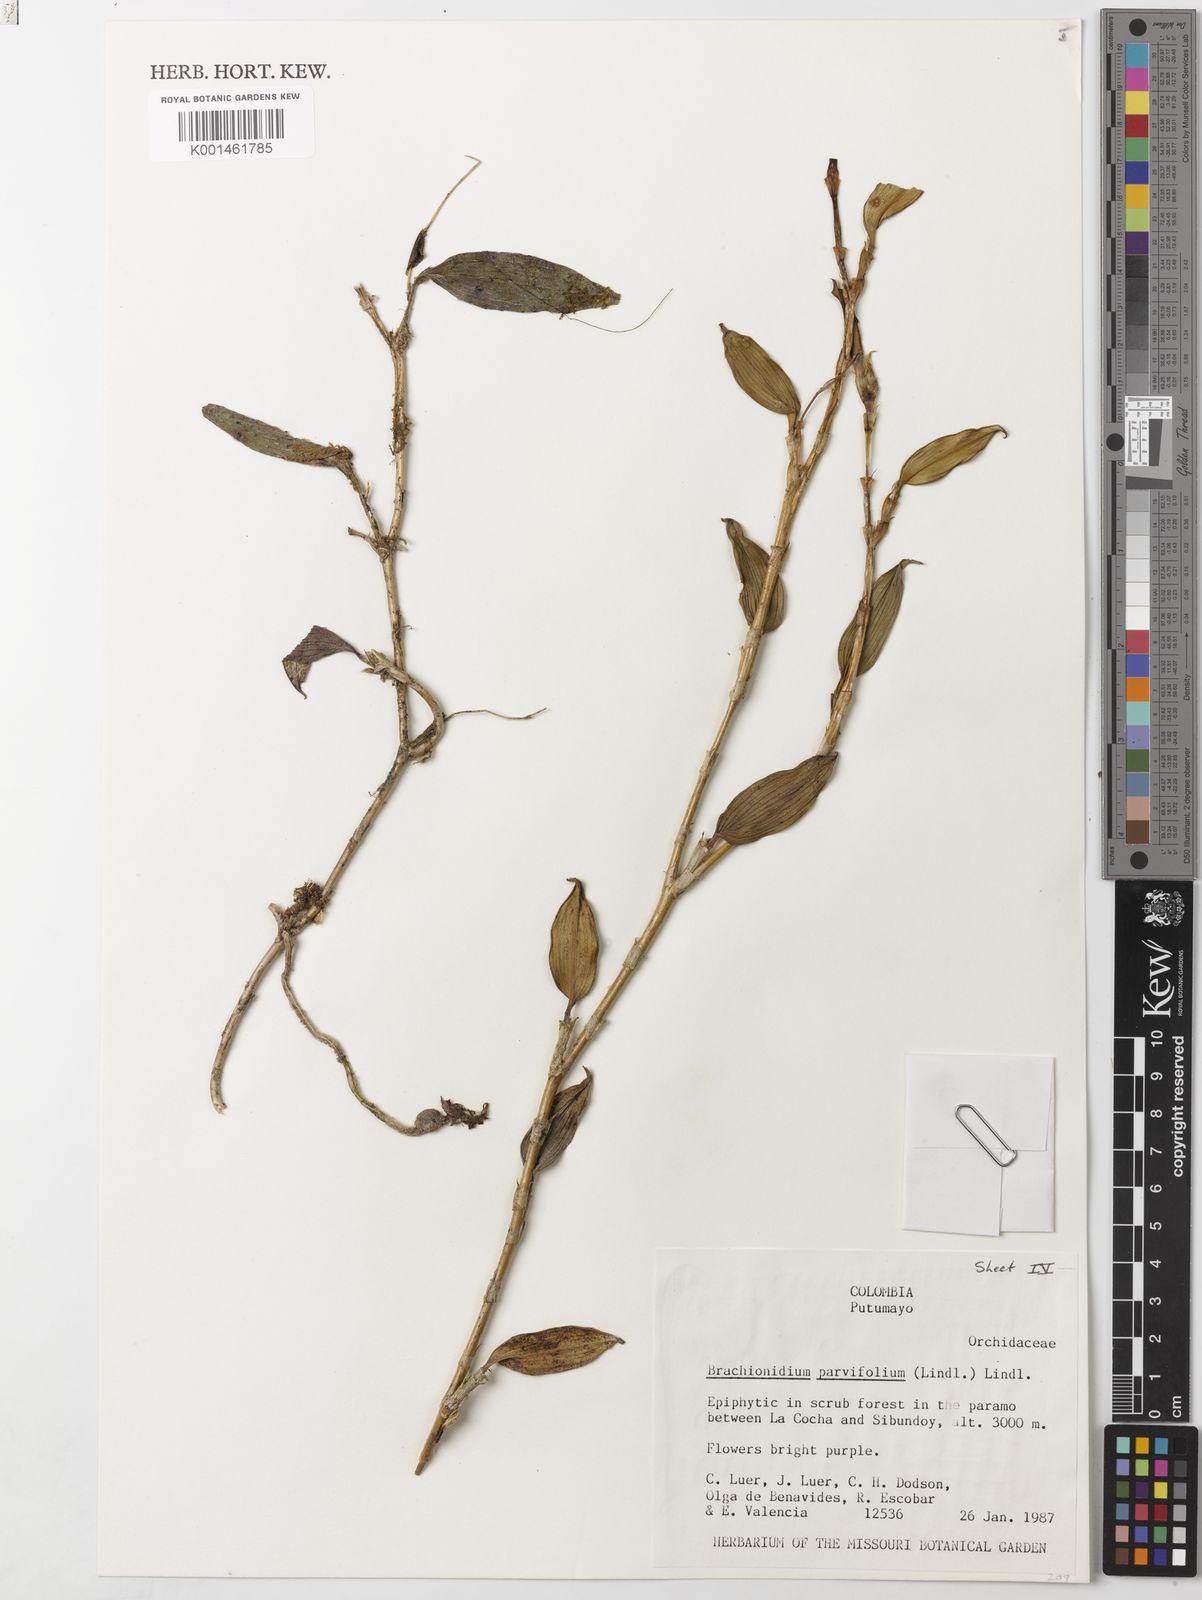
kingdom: Plantae
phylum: Tracheophyta
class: Liliopsida
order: Asparagales
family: Orchidaceae
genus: Brachionidium
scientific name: Brachionidium parvifolium
